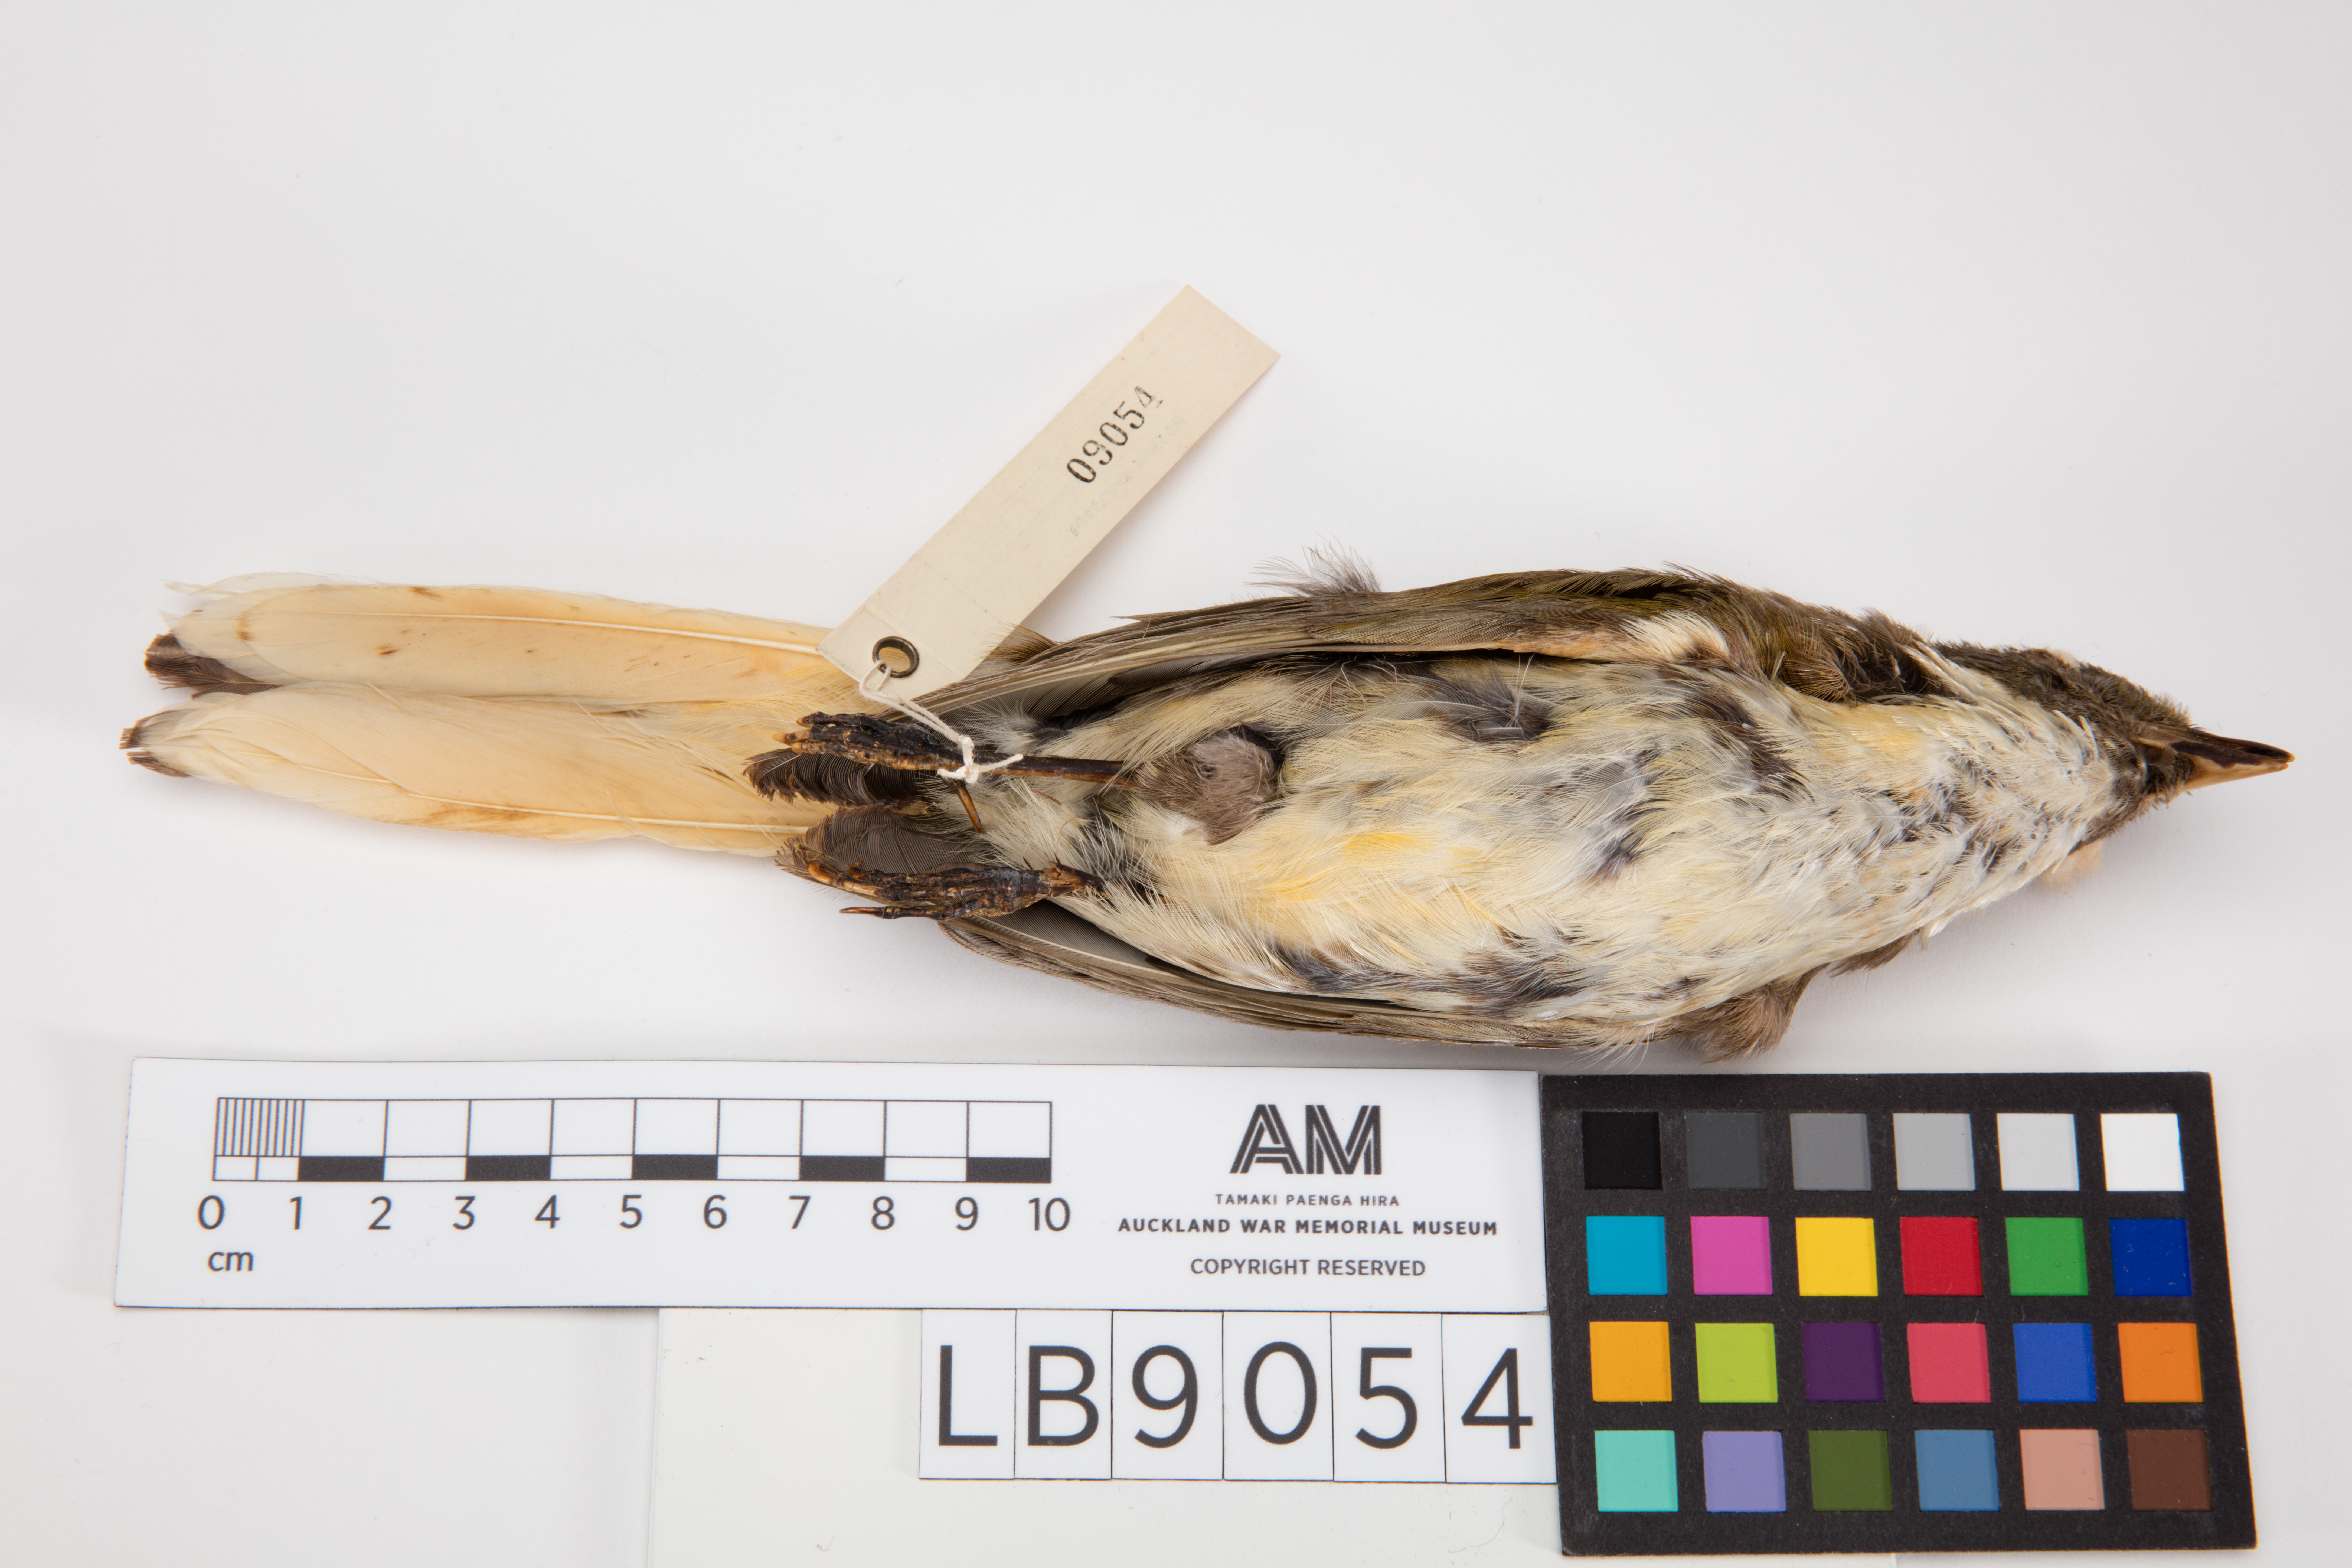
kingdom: Animalia
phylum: Chordata
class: Aves
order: Passeriformes
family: Ptilonorhynchidae
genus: Prionodura
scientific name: Prionodura newtoniana
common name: Golden bowerbird
